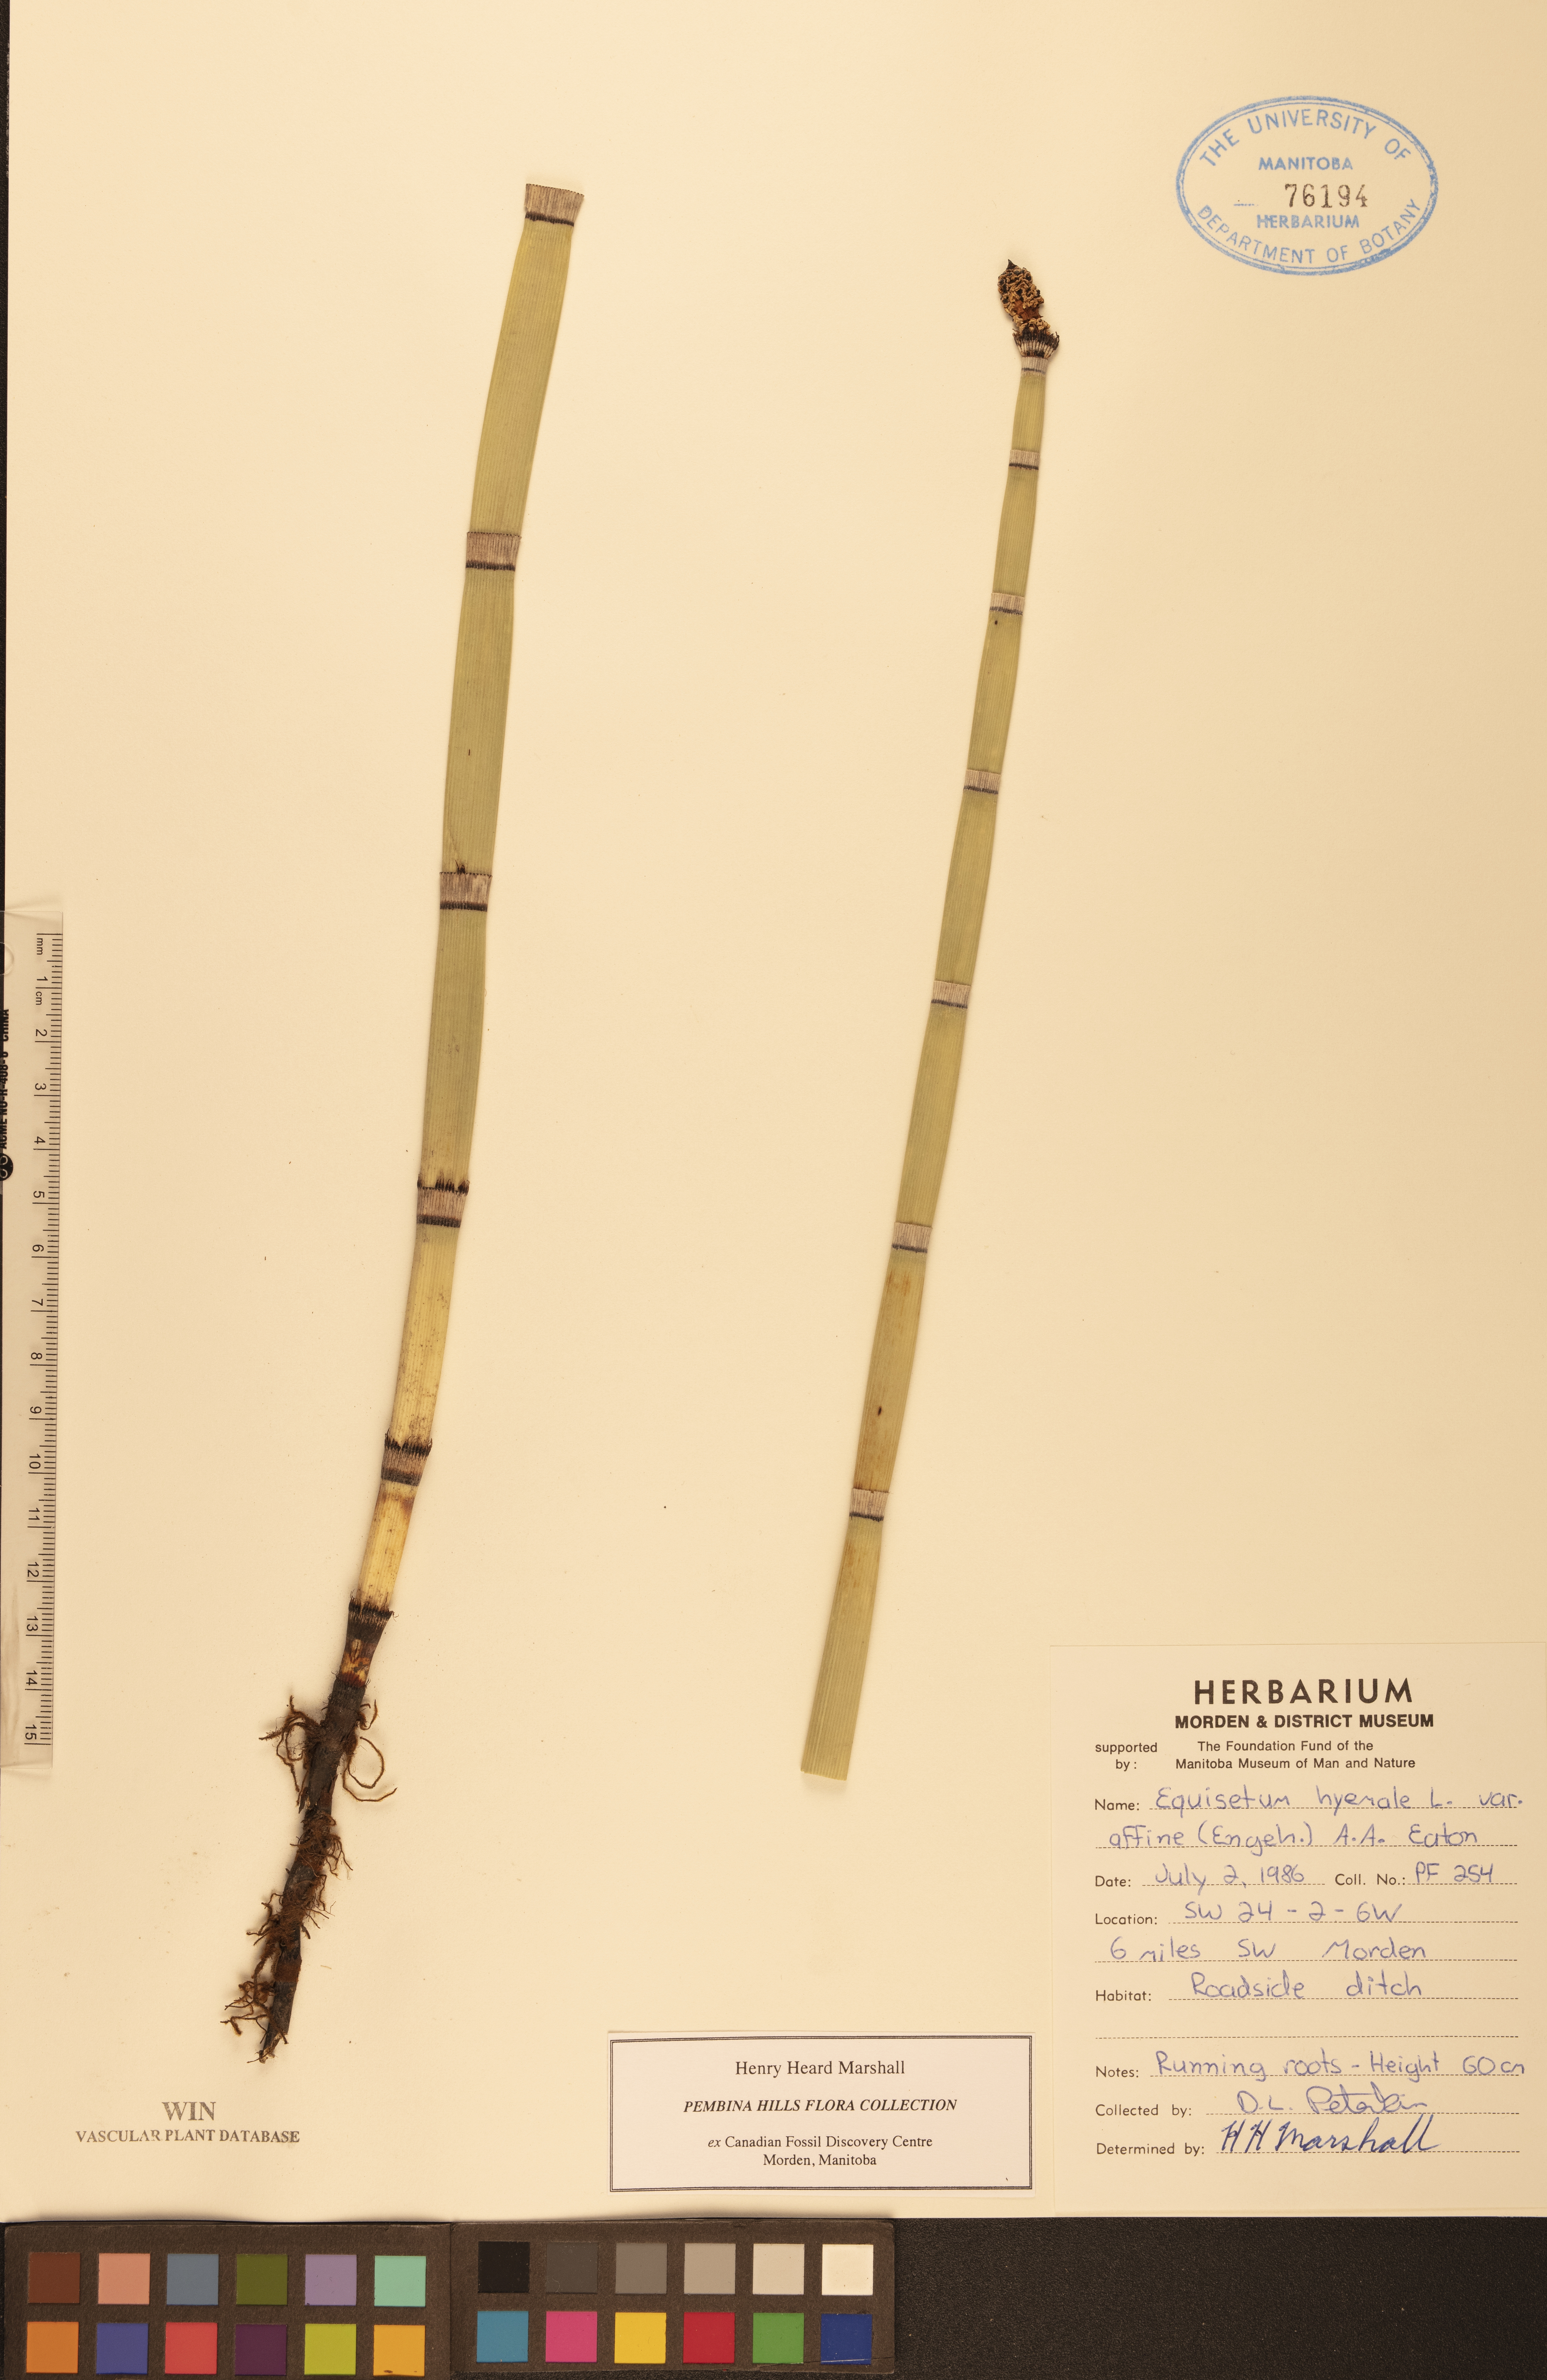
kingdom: Plantae
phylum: Tracheophyta
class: Polypodiopsida
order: Equisetales
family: Equisetaceae
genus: Equisetum
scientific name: Equisetum hyemale
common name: Rough horsetail
